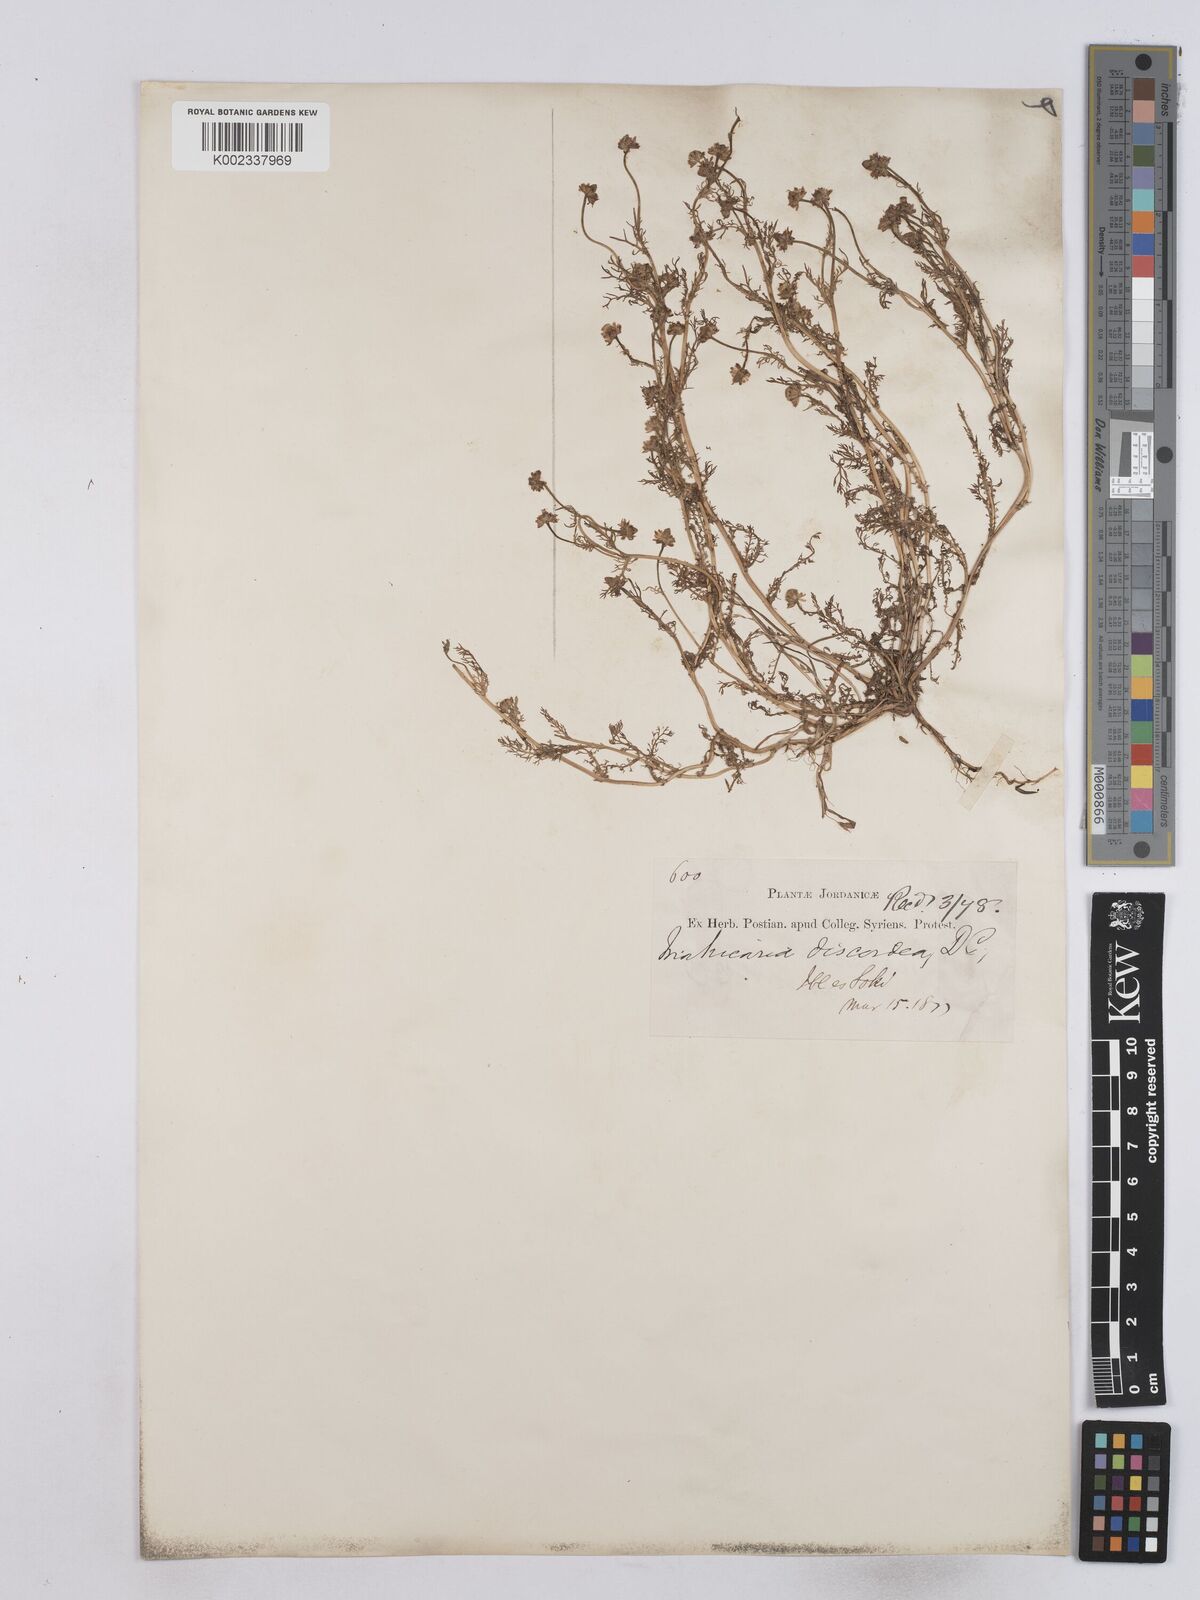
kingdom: Plantae
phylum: Tracheophyta
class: Magnoliopsida
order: Asterales
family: Asteraceae
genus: Matricaria
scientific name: Matricaria aurea
